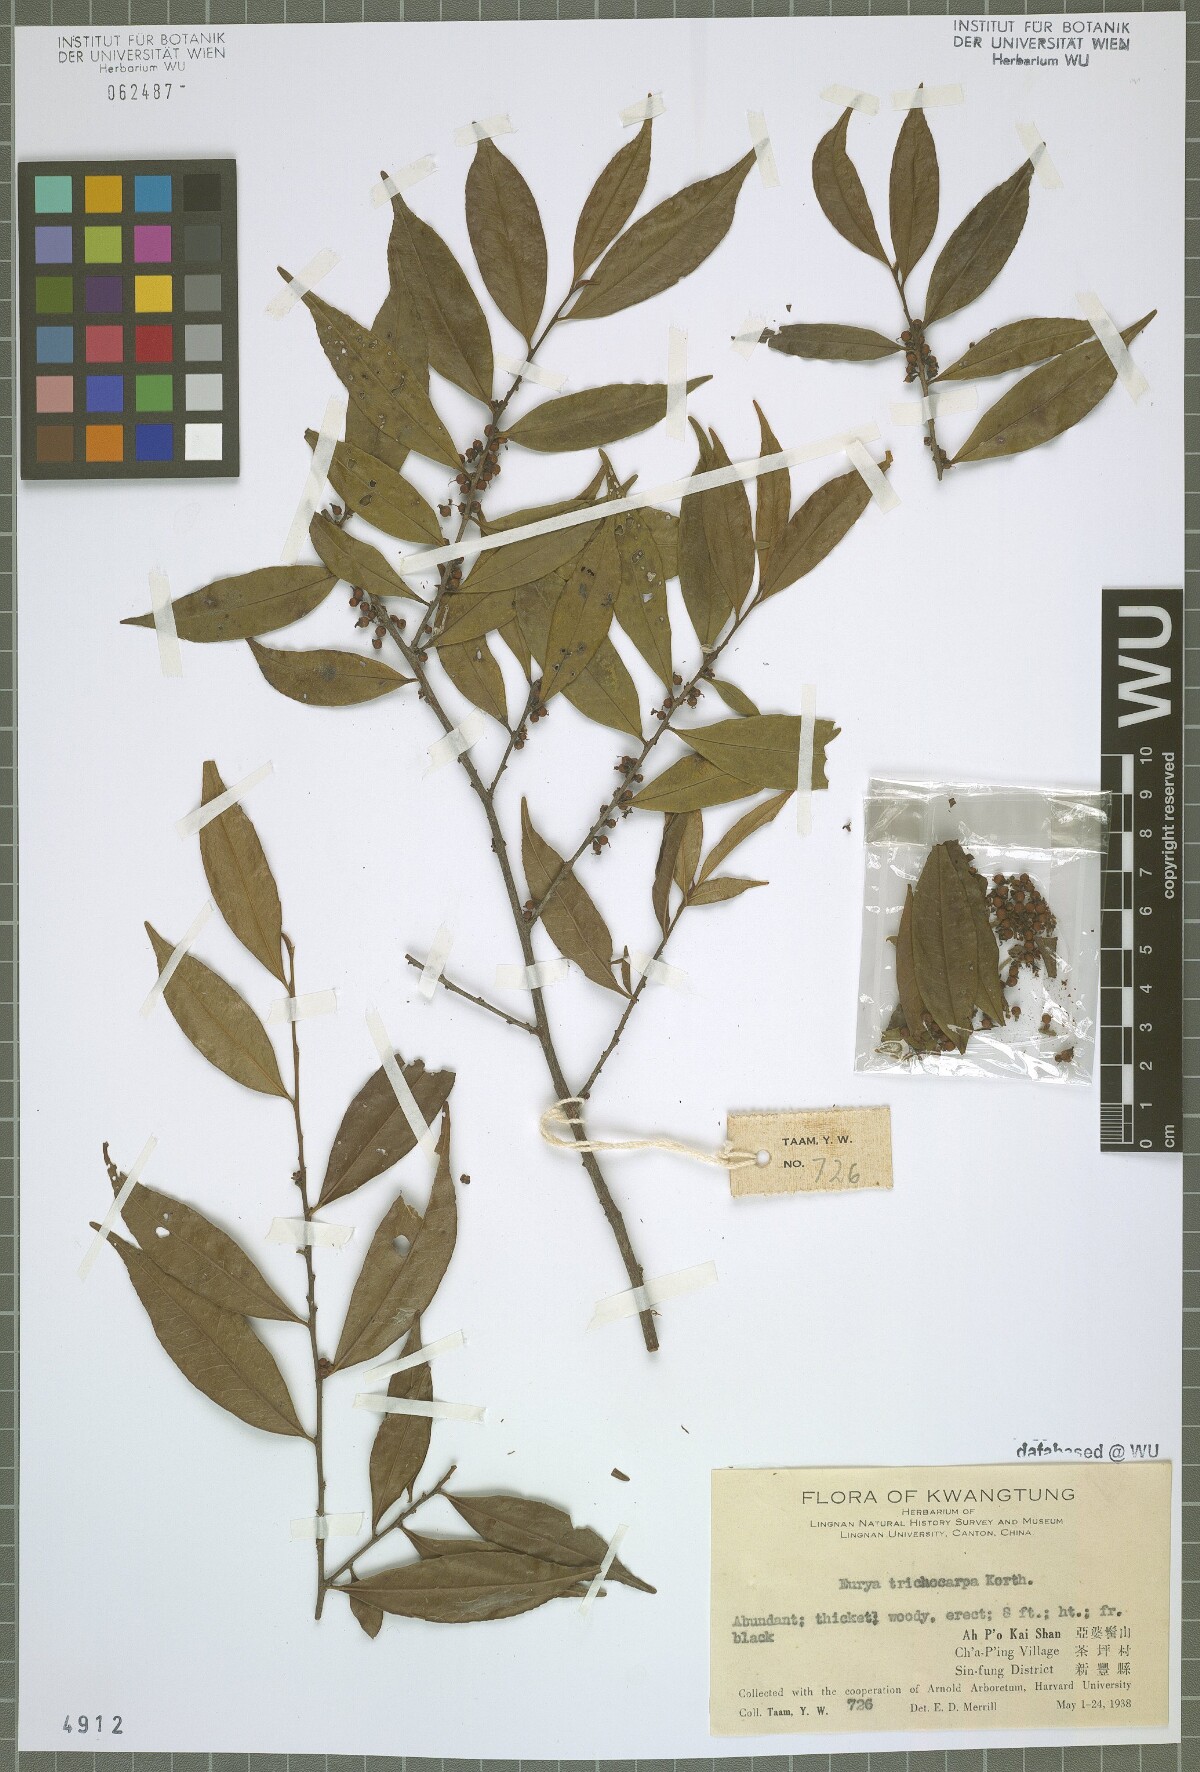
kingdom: Plantae
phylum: Tracheophyta
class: Magnoliopsida
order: Ericales
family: Pentaphylacaceae
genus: Eurya
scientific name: Eurya trichocarpa
